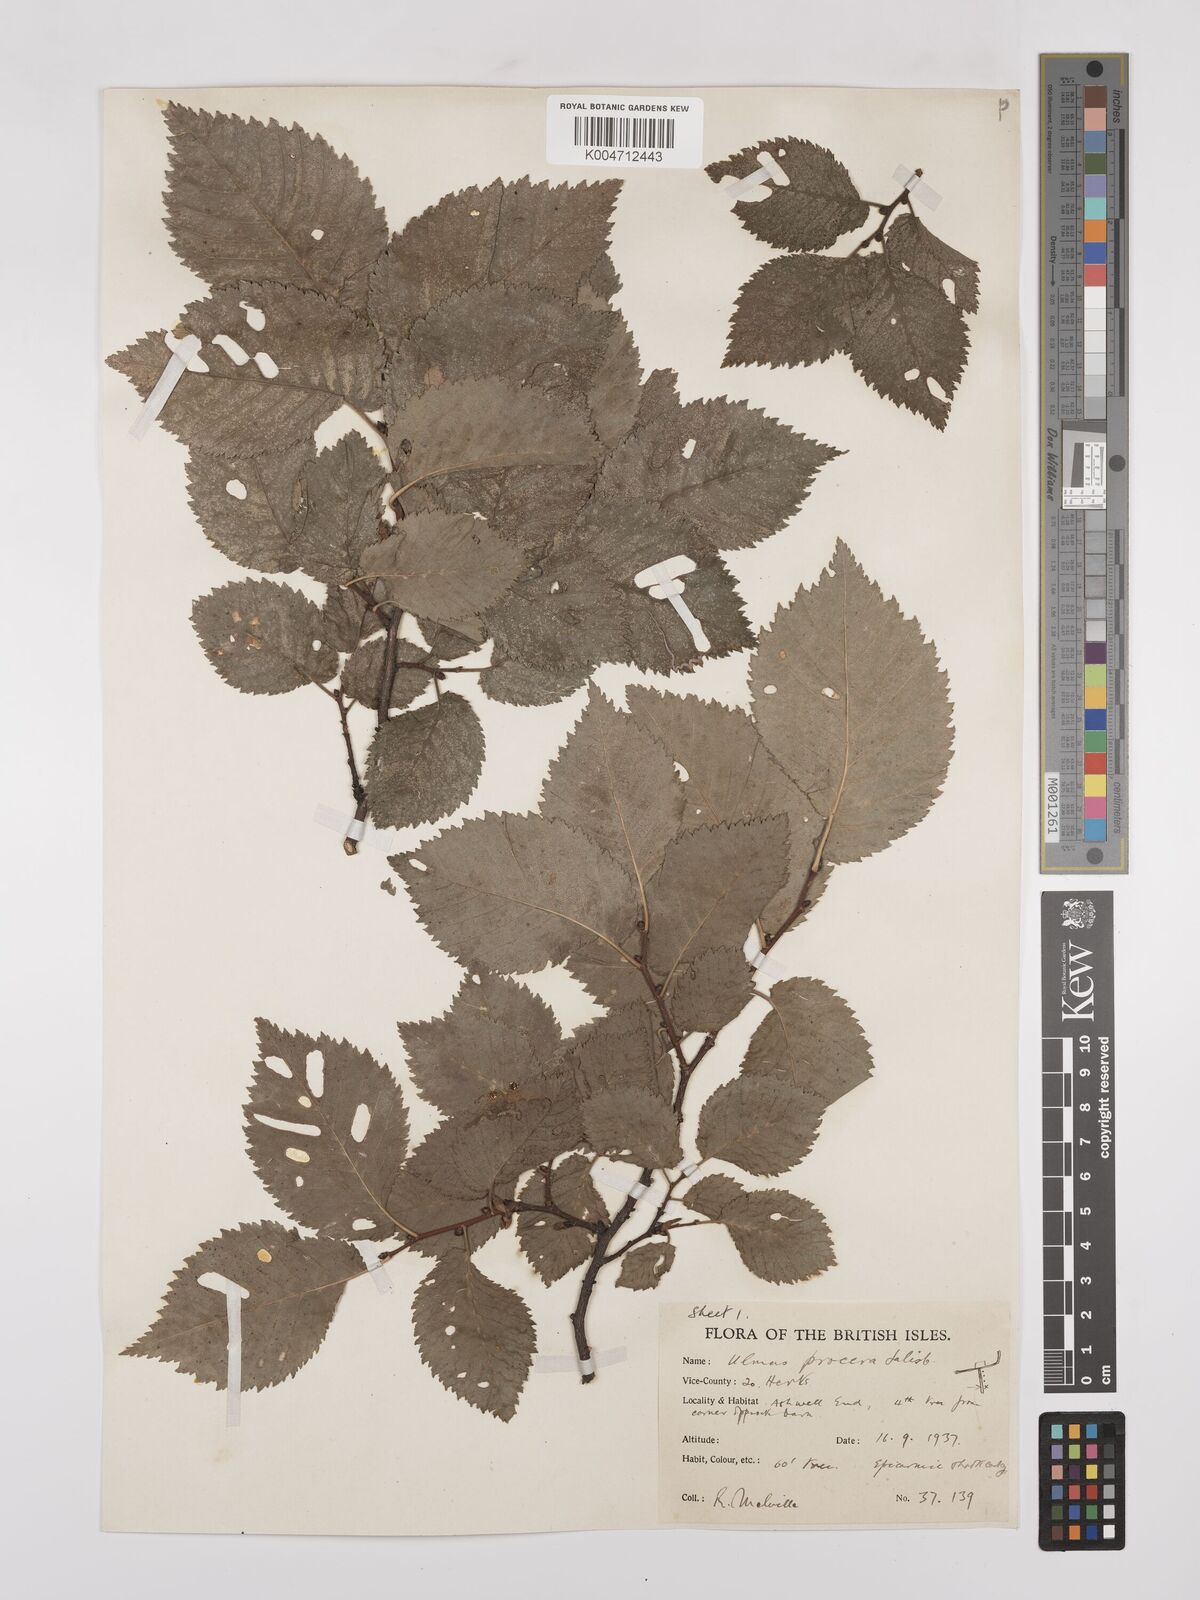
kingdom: Plantae
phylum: Tracheophyta
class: Magnoliopsida
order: Rosales
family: Ulmaceae
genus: Ulmus
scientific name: Ulmus minor
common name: Small-leaved elm
